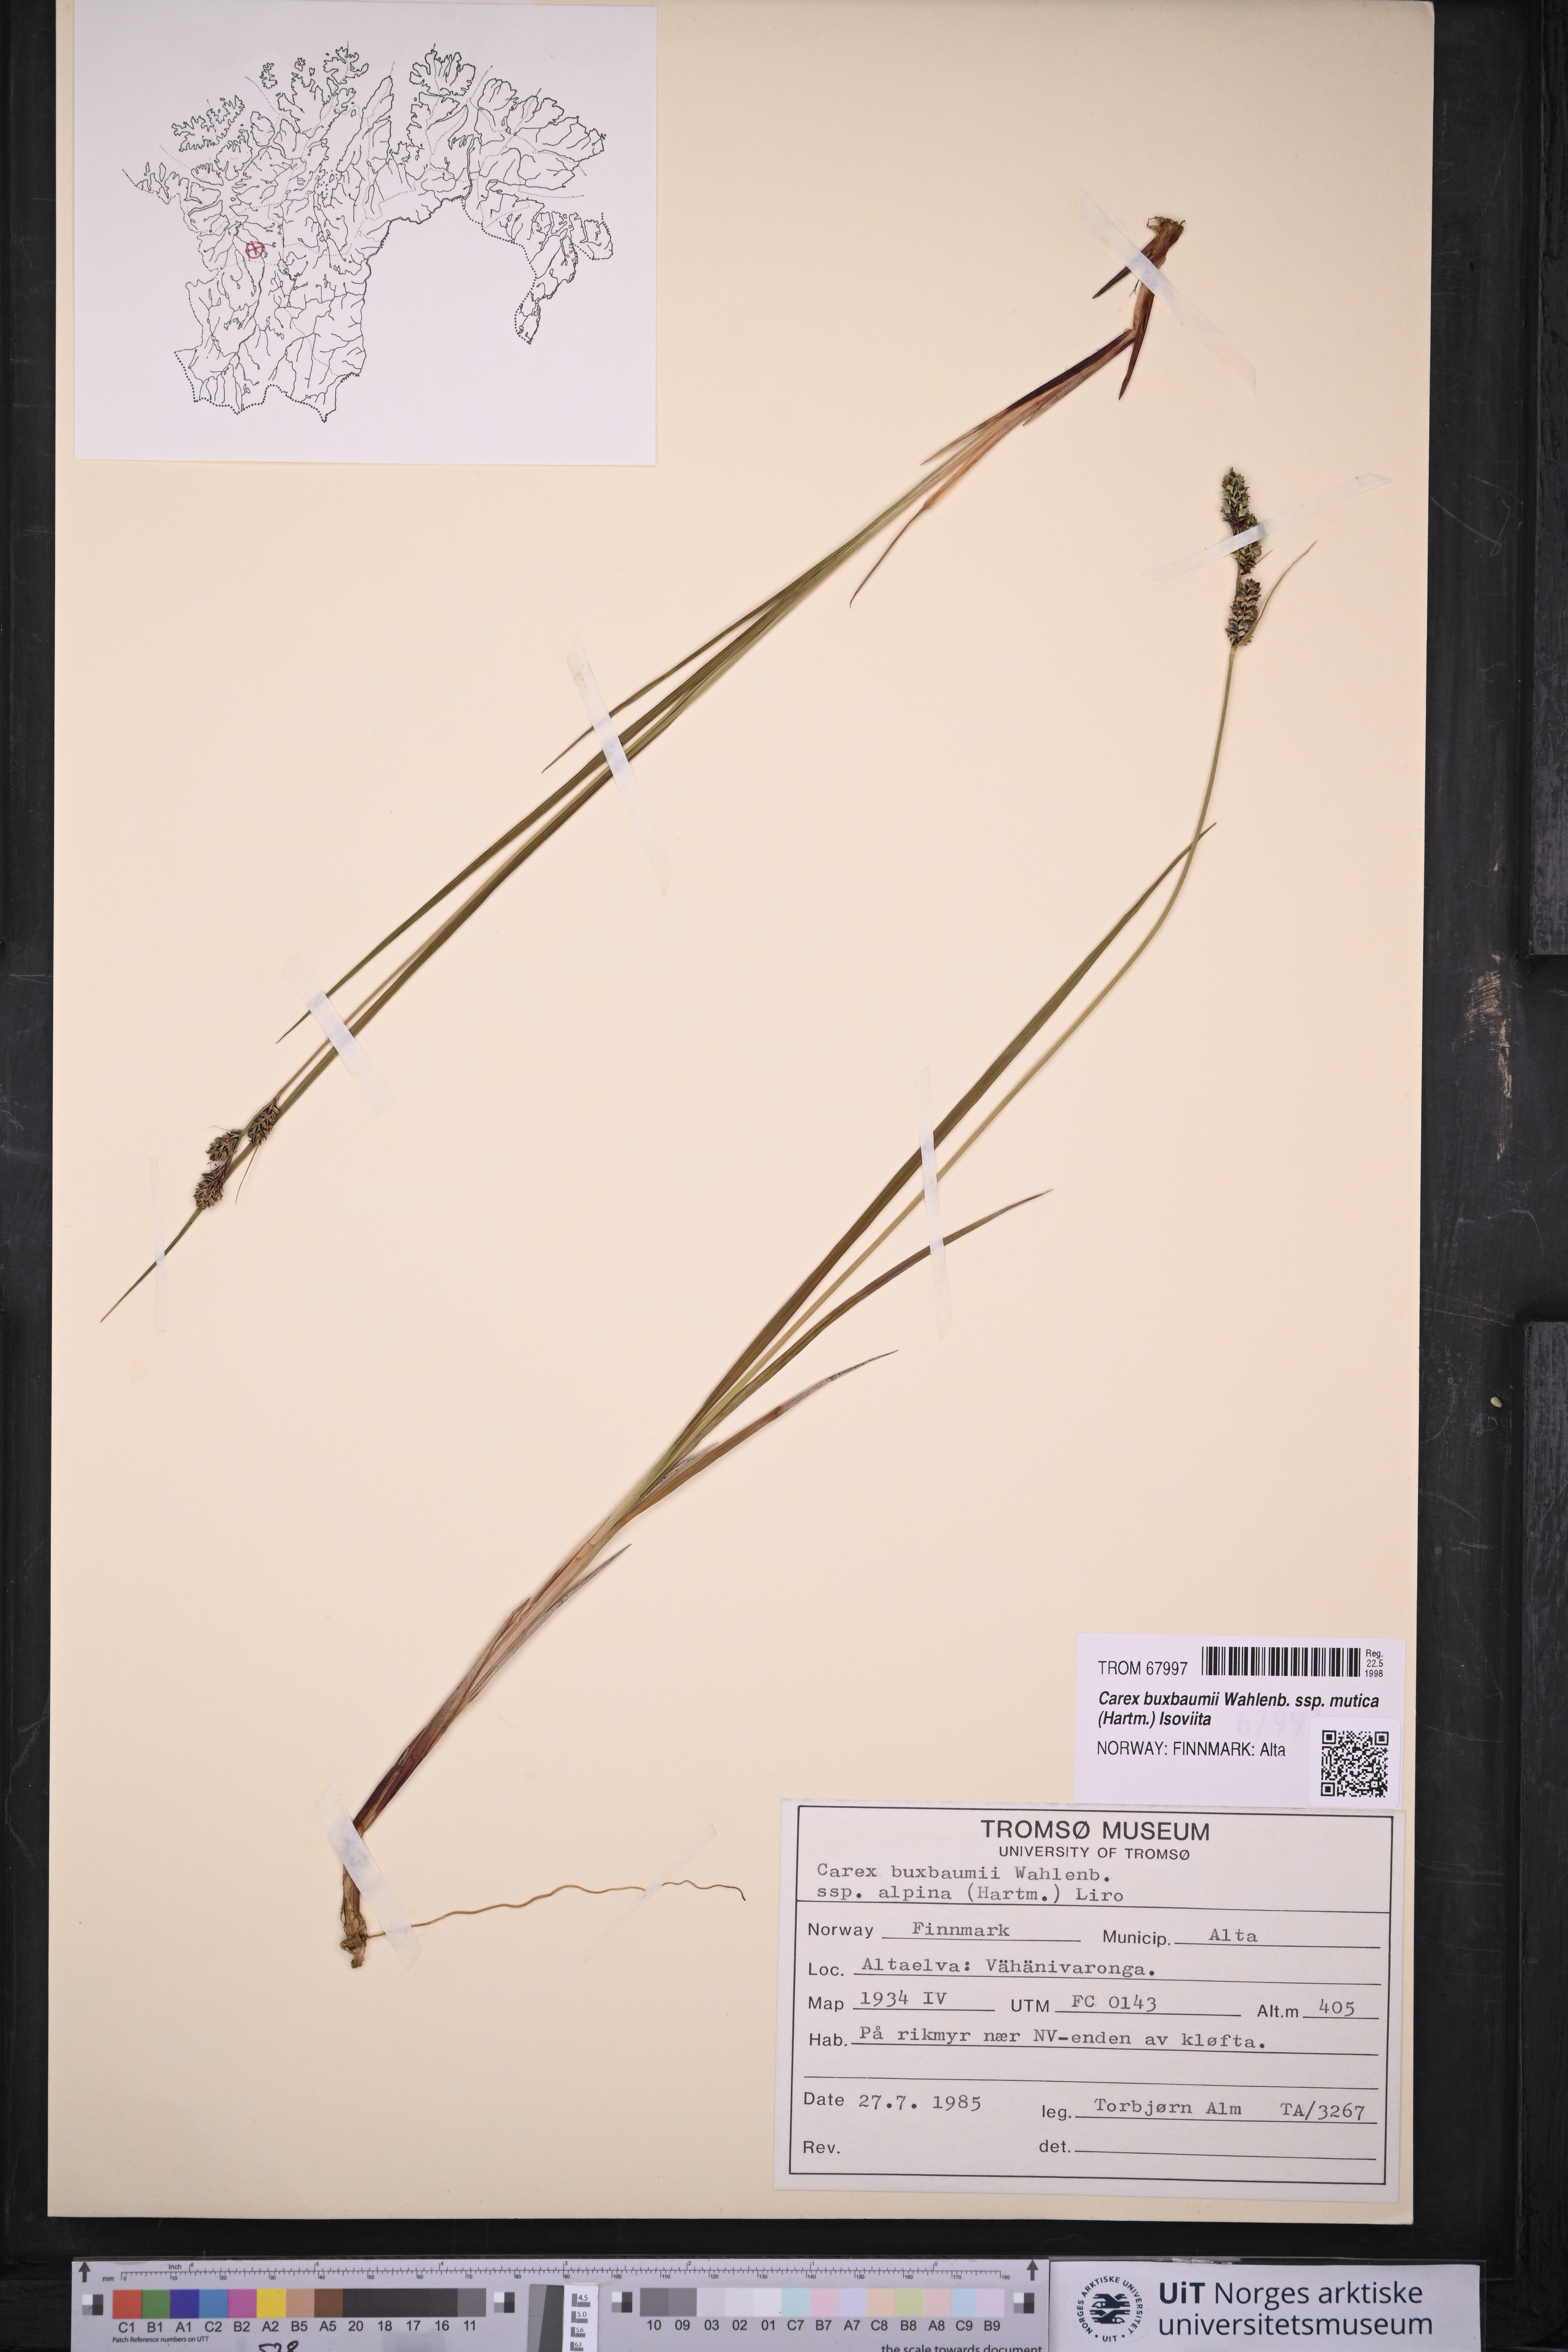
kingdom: Plantae
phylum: Tracheophyta
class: Liliopsida
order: Poales
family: Cyperaceae
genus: Carex
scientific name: Carex adelostoma
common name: Circumpolar sedge
